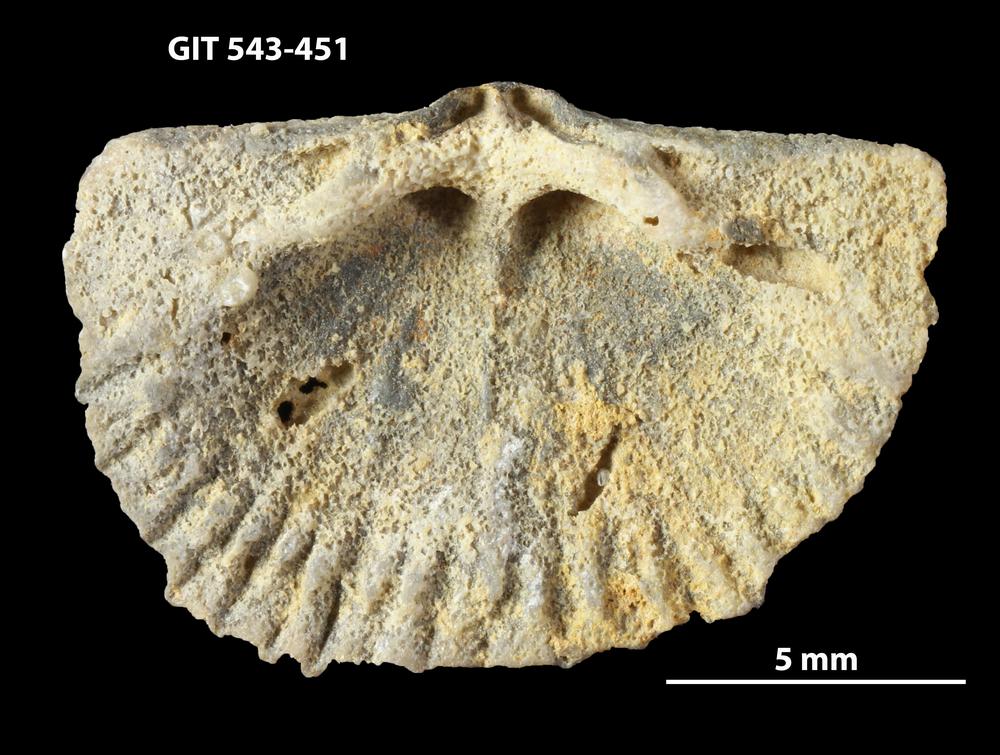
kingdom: Animalia
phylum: Brachiopoda
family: Gonambonitidae
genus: Estlandia
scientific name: Estlandia Orthisina marginata
